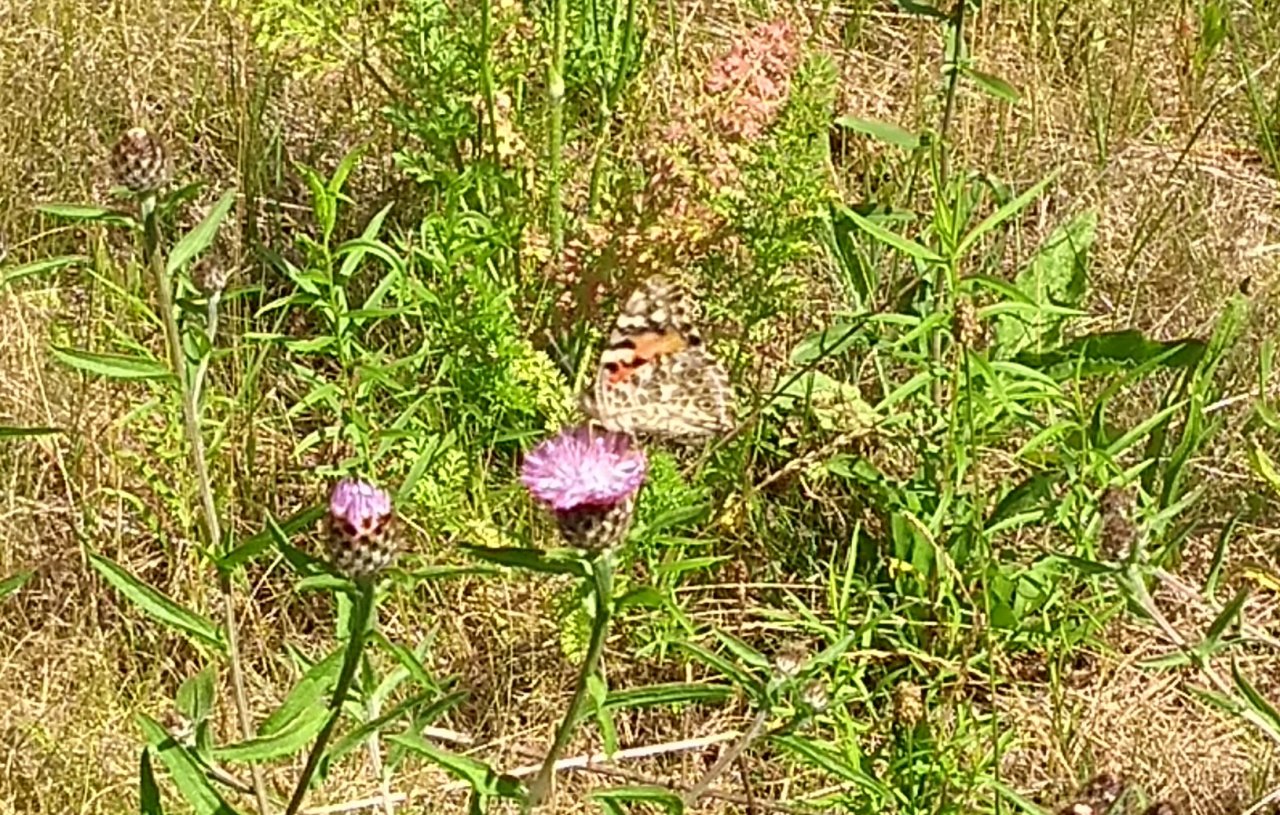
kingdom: Animalia
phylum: Arthropoda
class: Insecta
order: Lepidoptera
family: Nymphalidae
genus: Vanessa
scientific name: Vanessa cardui
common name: Painted Lady
